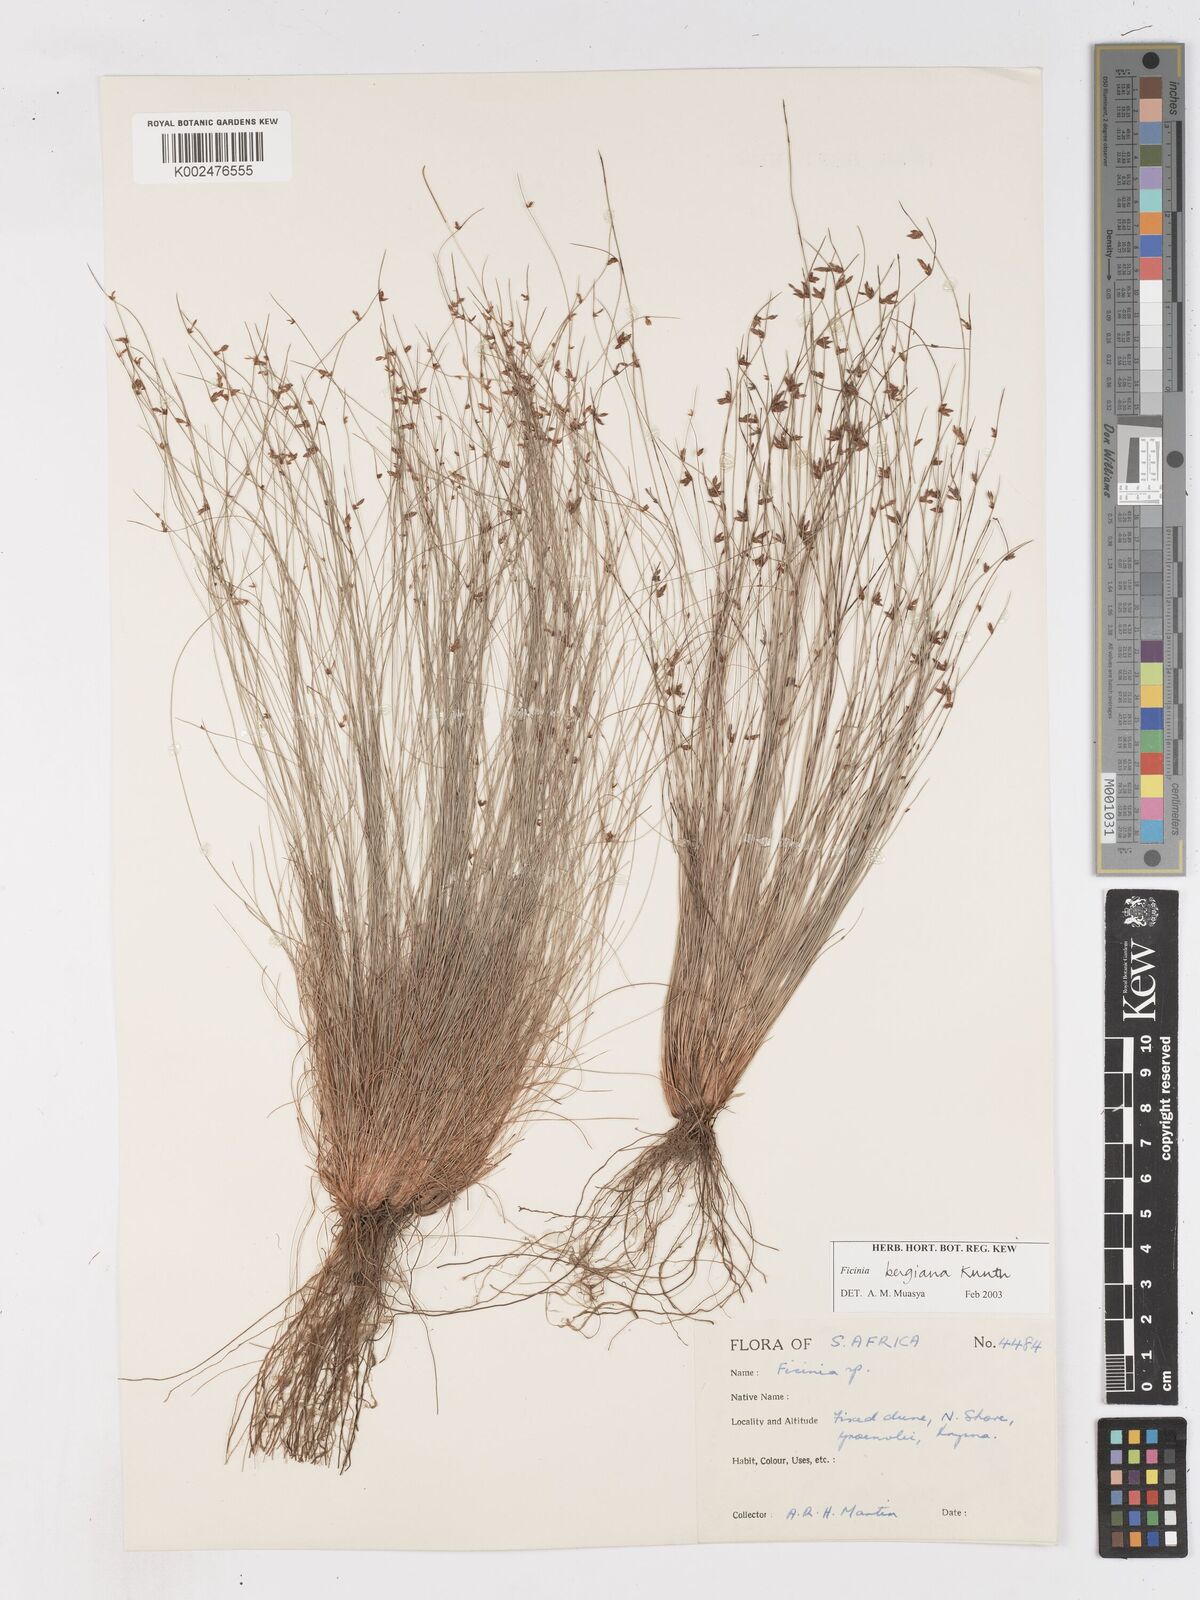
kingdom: Plantae
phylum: Tracheophyta
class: Liliopsida
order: Poales
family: Cyperaceae
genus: Ficinia
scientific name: Ficinia
